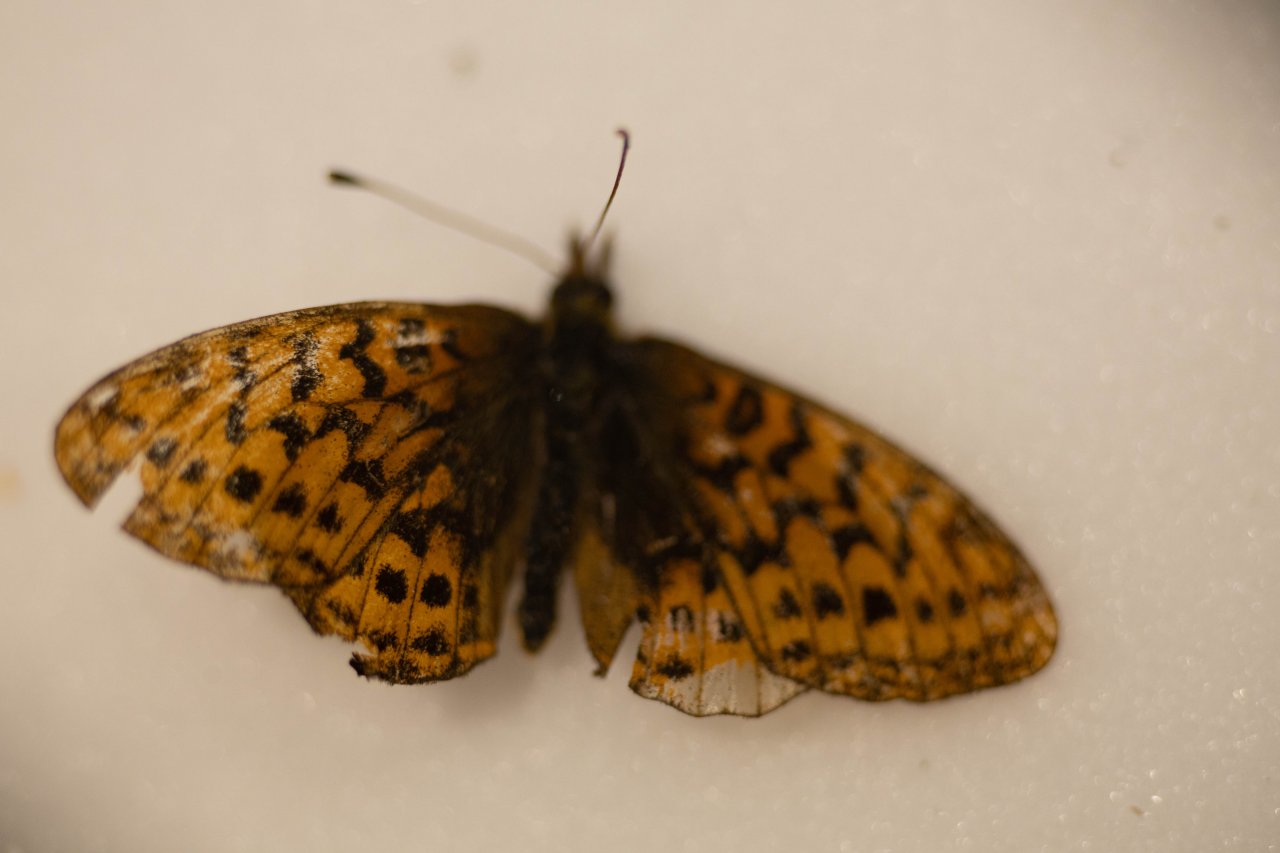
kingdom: Animalia
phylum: Arthropoda
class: Insecta
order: Lepidoptera
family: Nymphalidae
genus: Clossiana
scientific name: Clossiana toddi
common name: Meadow Fritillary
